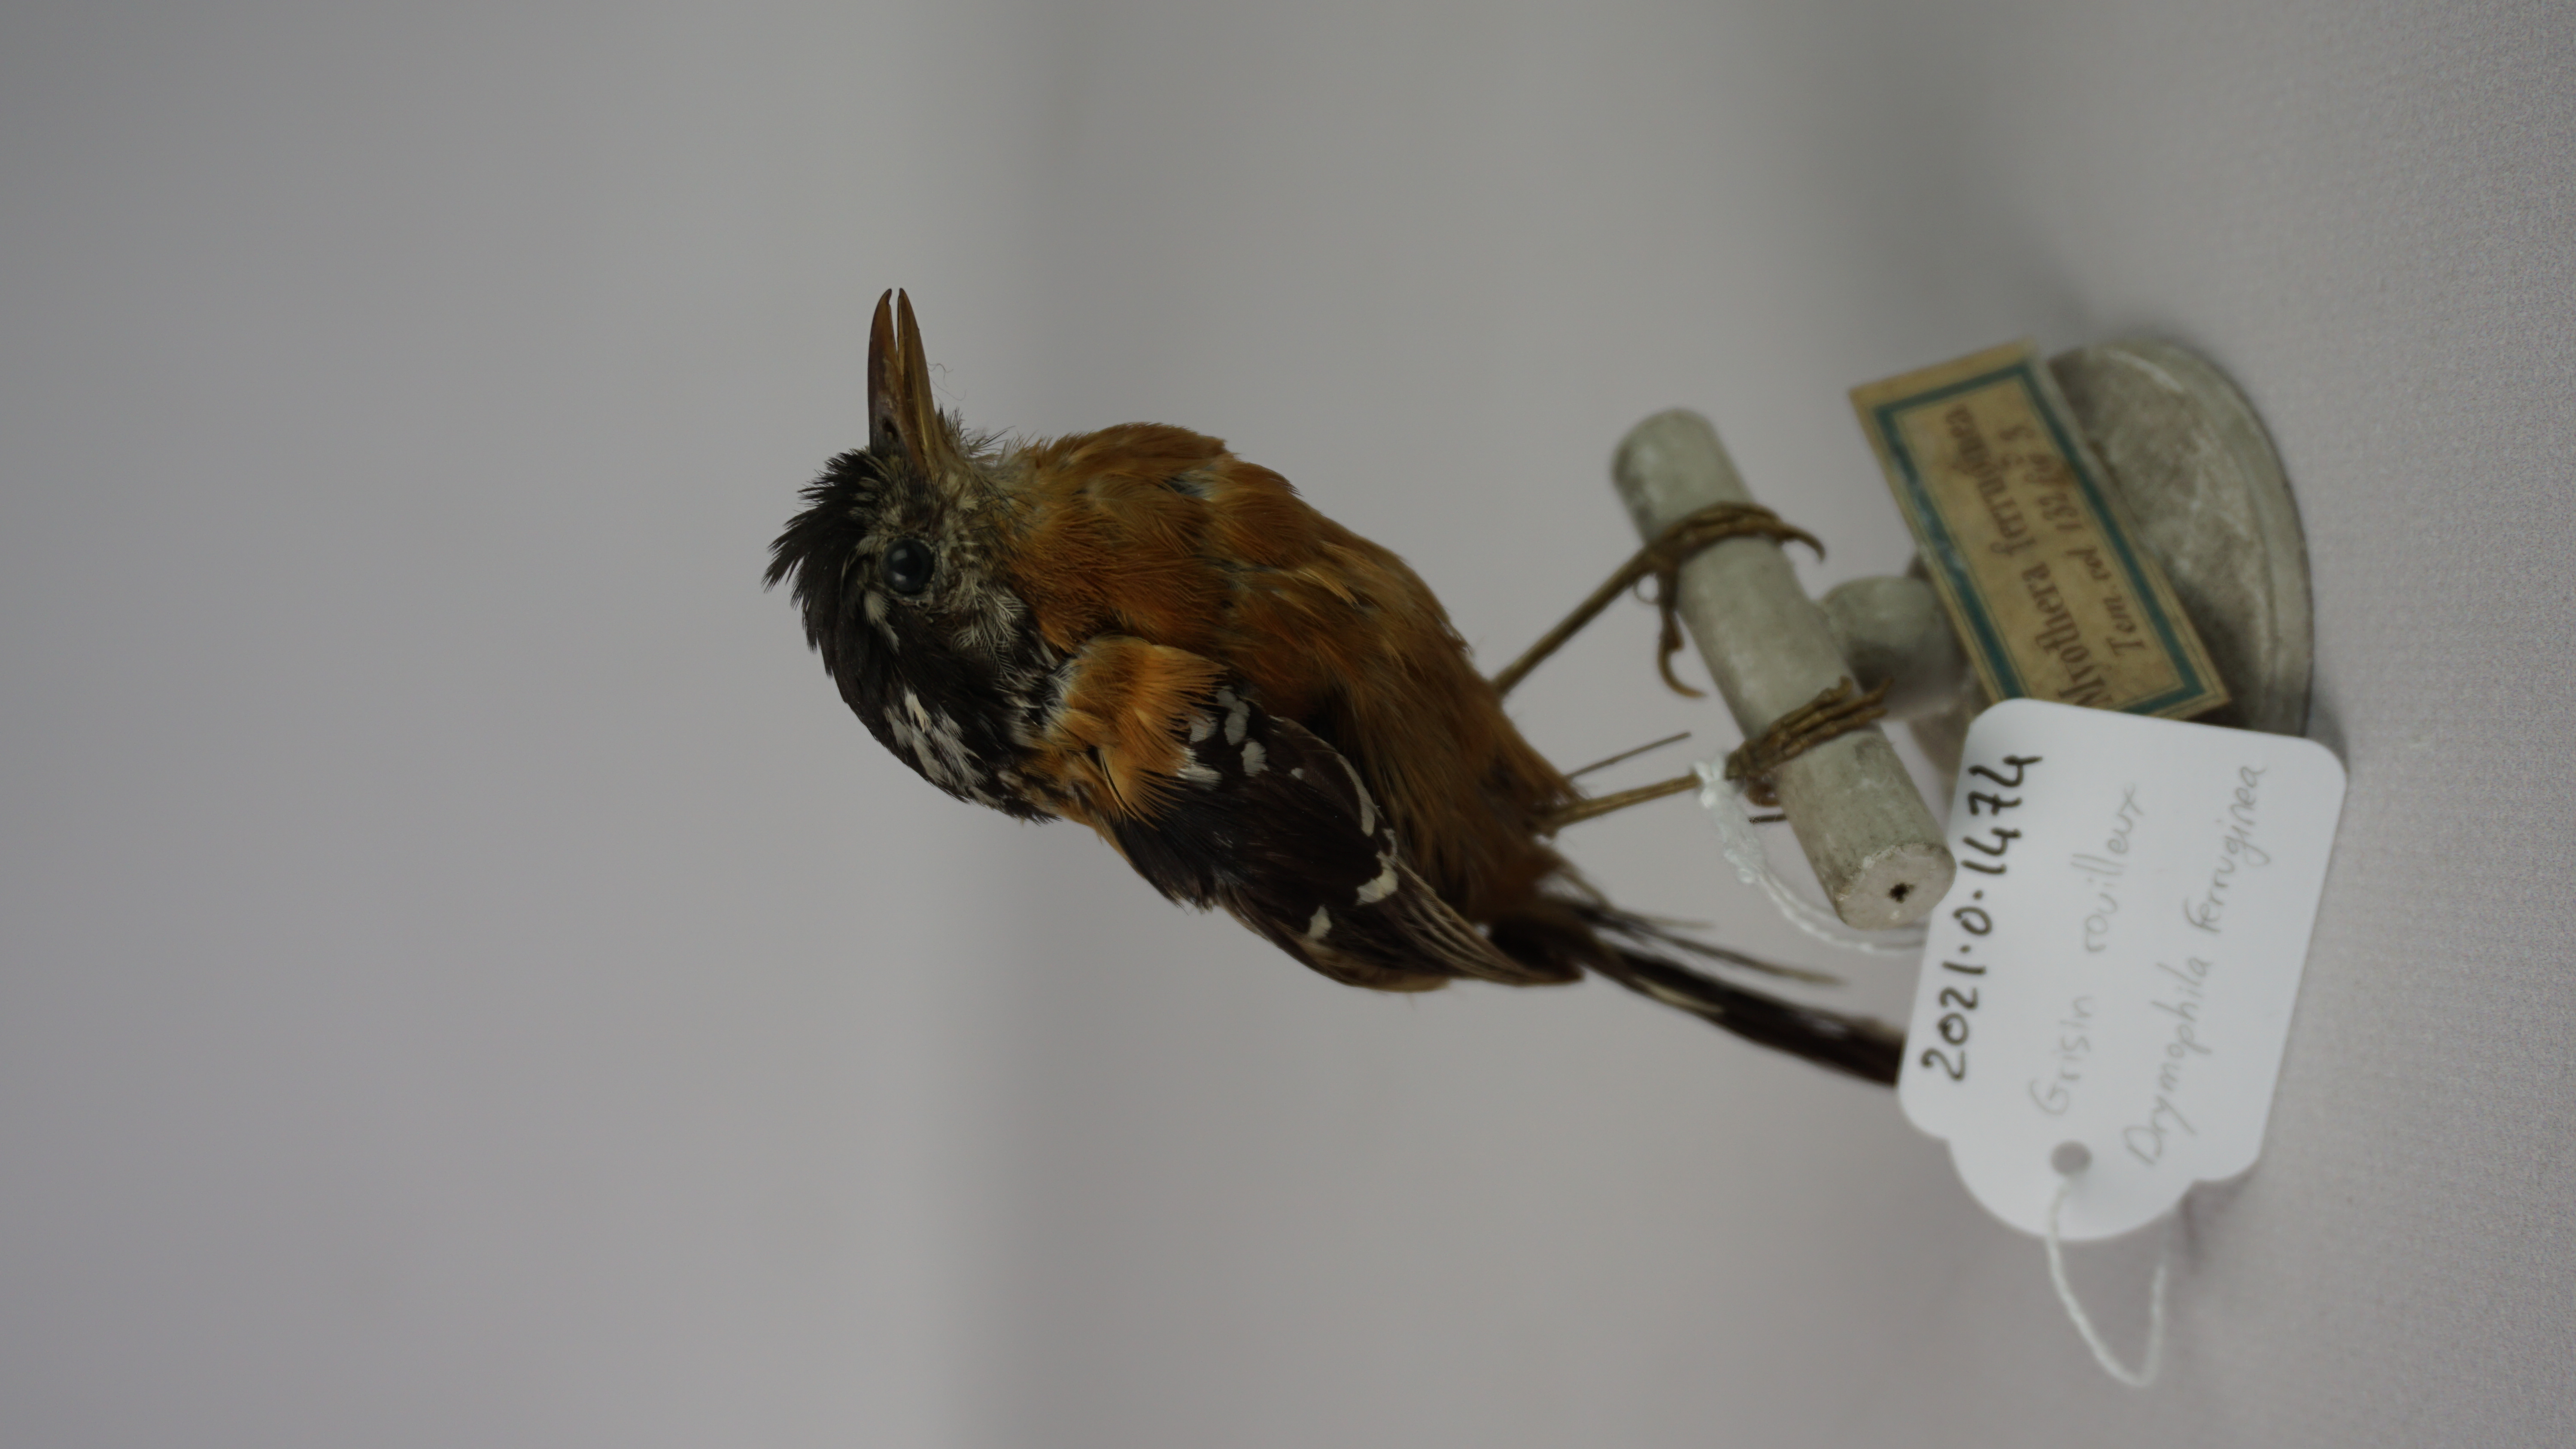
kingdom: Animalia
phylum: Chordata
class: Aves
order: Passeriformes
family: Thamnophilidae
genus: Drymophila
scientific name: Drymophila ferruginea
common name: Ferruginous antbird
